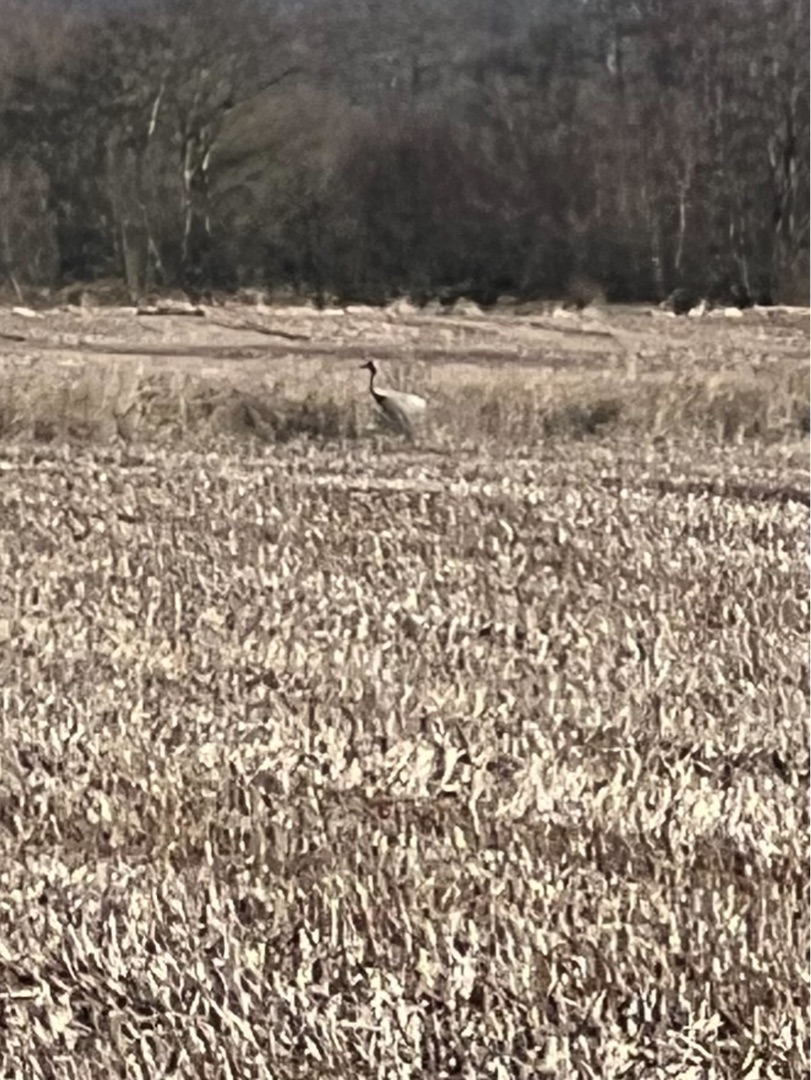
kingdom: Animalia
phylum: Chordata
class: Aves
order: Gruiformes
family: Gruidae
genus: Grus
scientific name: Grus grus
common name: Trane
